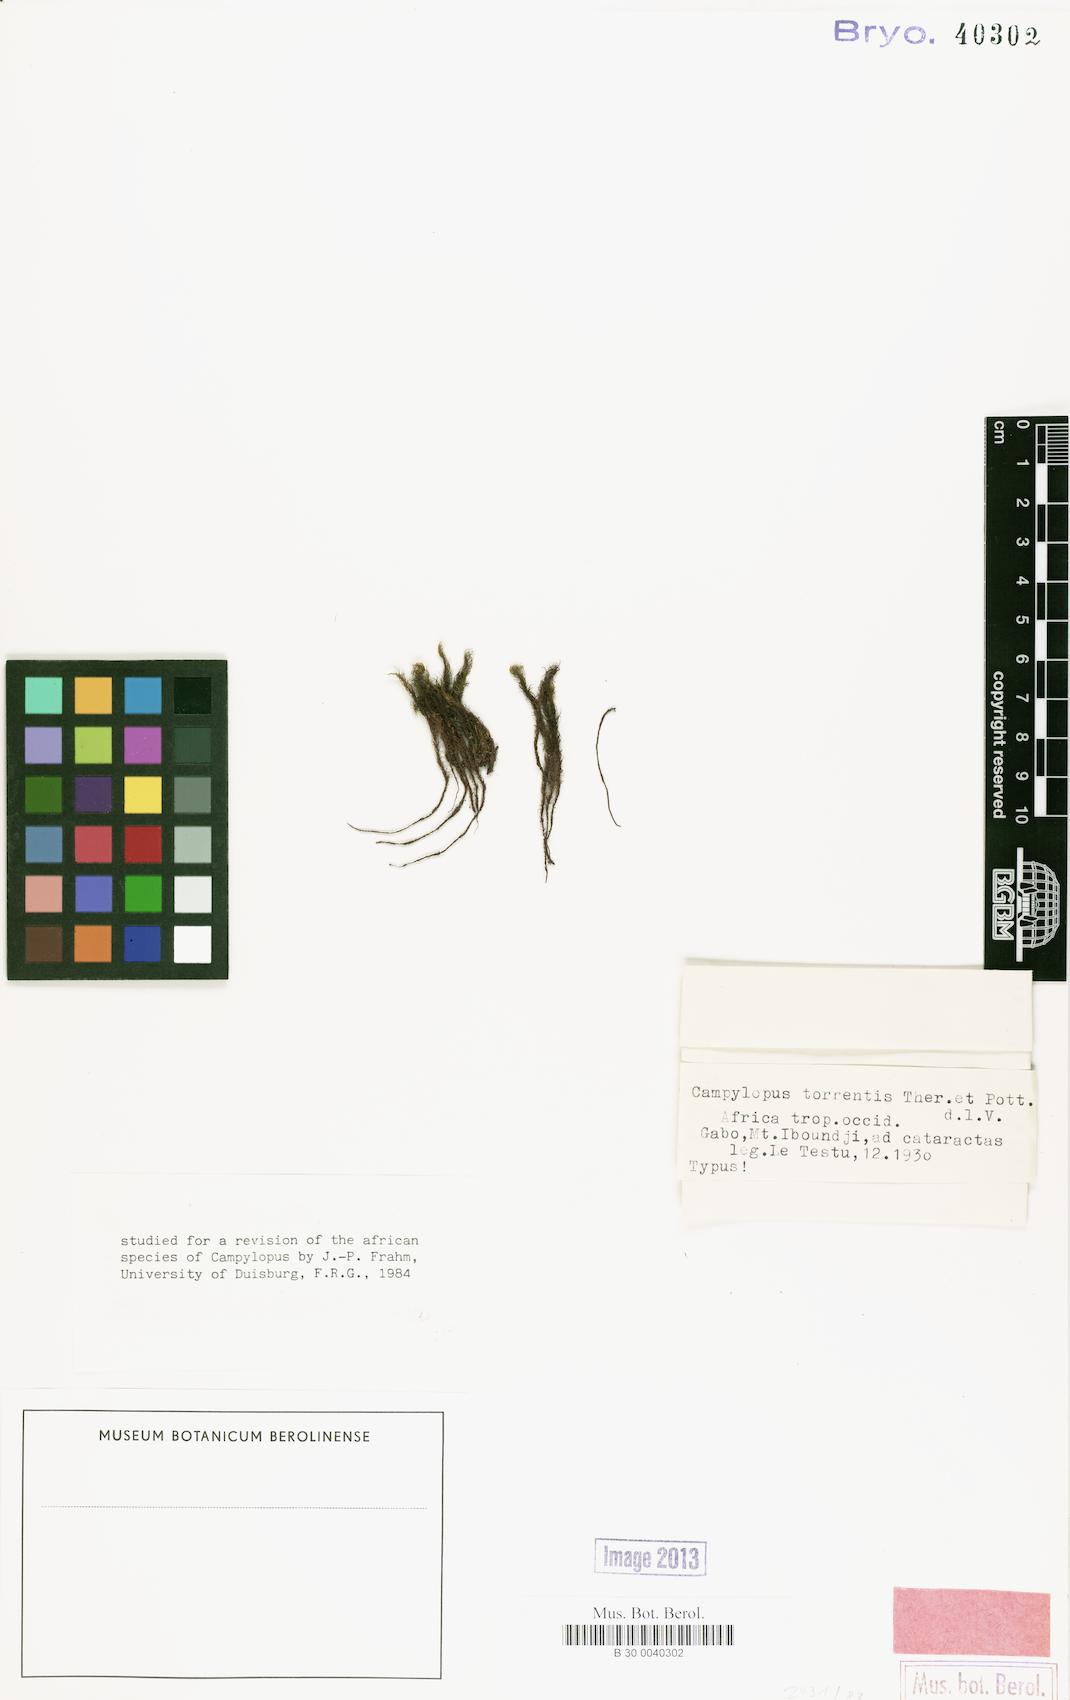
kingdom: Plantae
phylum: Bryophyta
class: Bryopsida
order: Dicranales
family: Leucobryaceae
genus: Campylopus
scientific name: Campylopus torrentis
